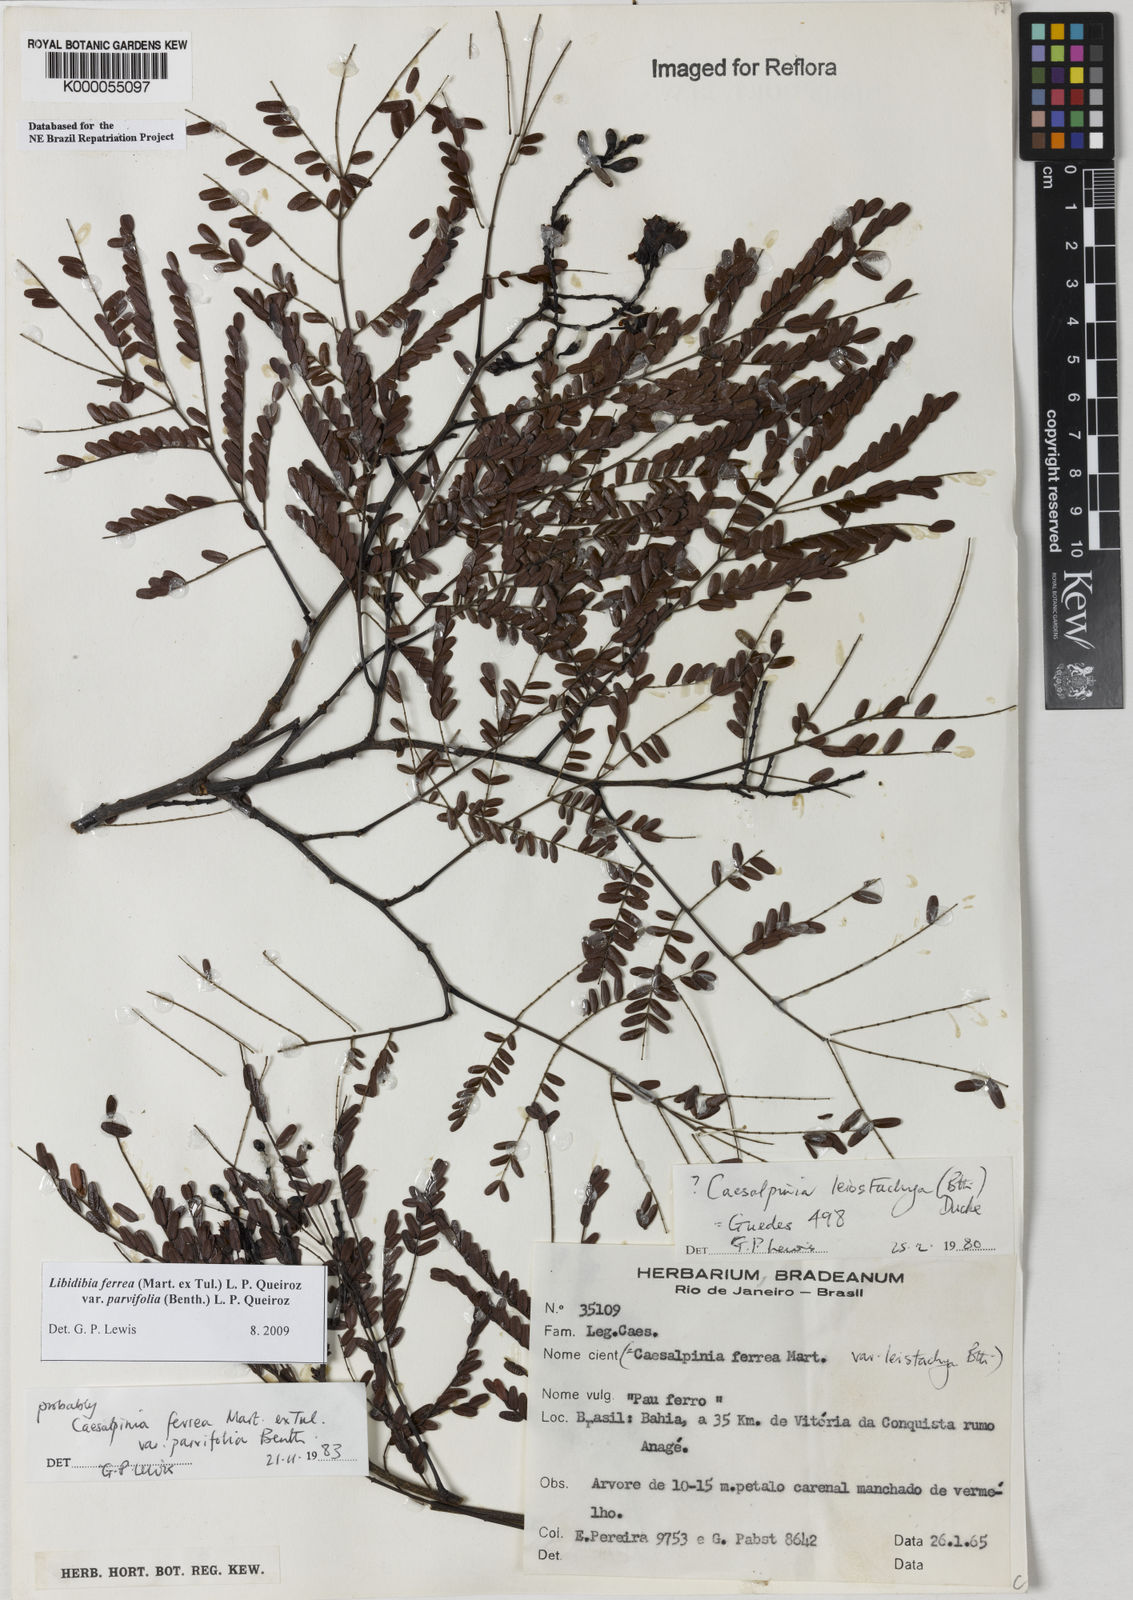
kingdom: Plantae
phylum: Tracheophyta
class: Magnoliopsida
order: Fabales
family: Fabaceae
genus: Libidibia
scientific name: Libidibia ferrea
